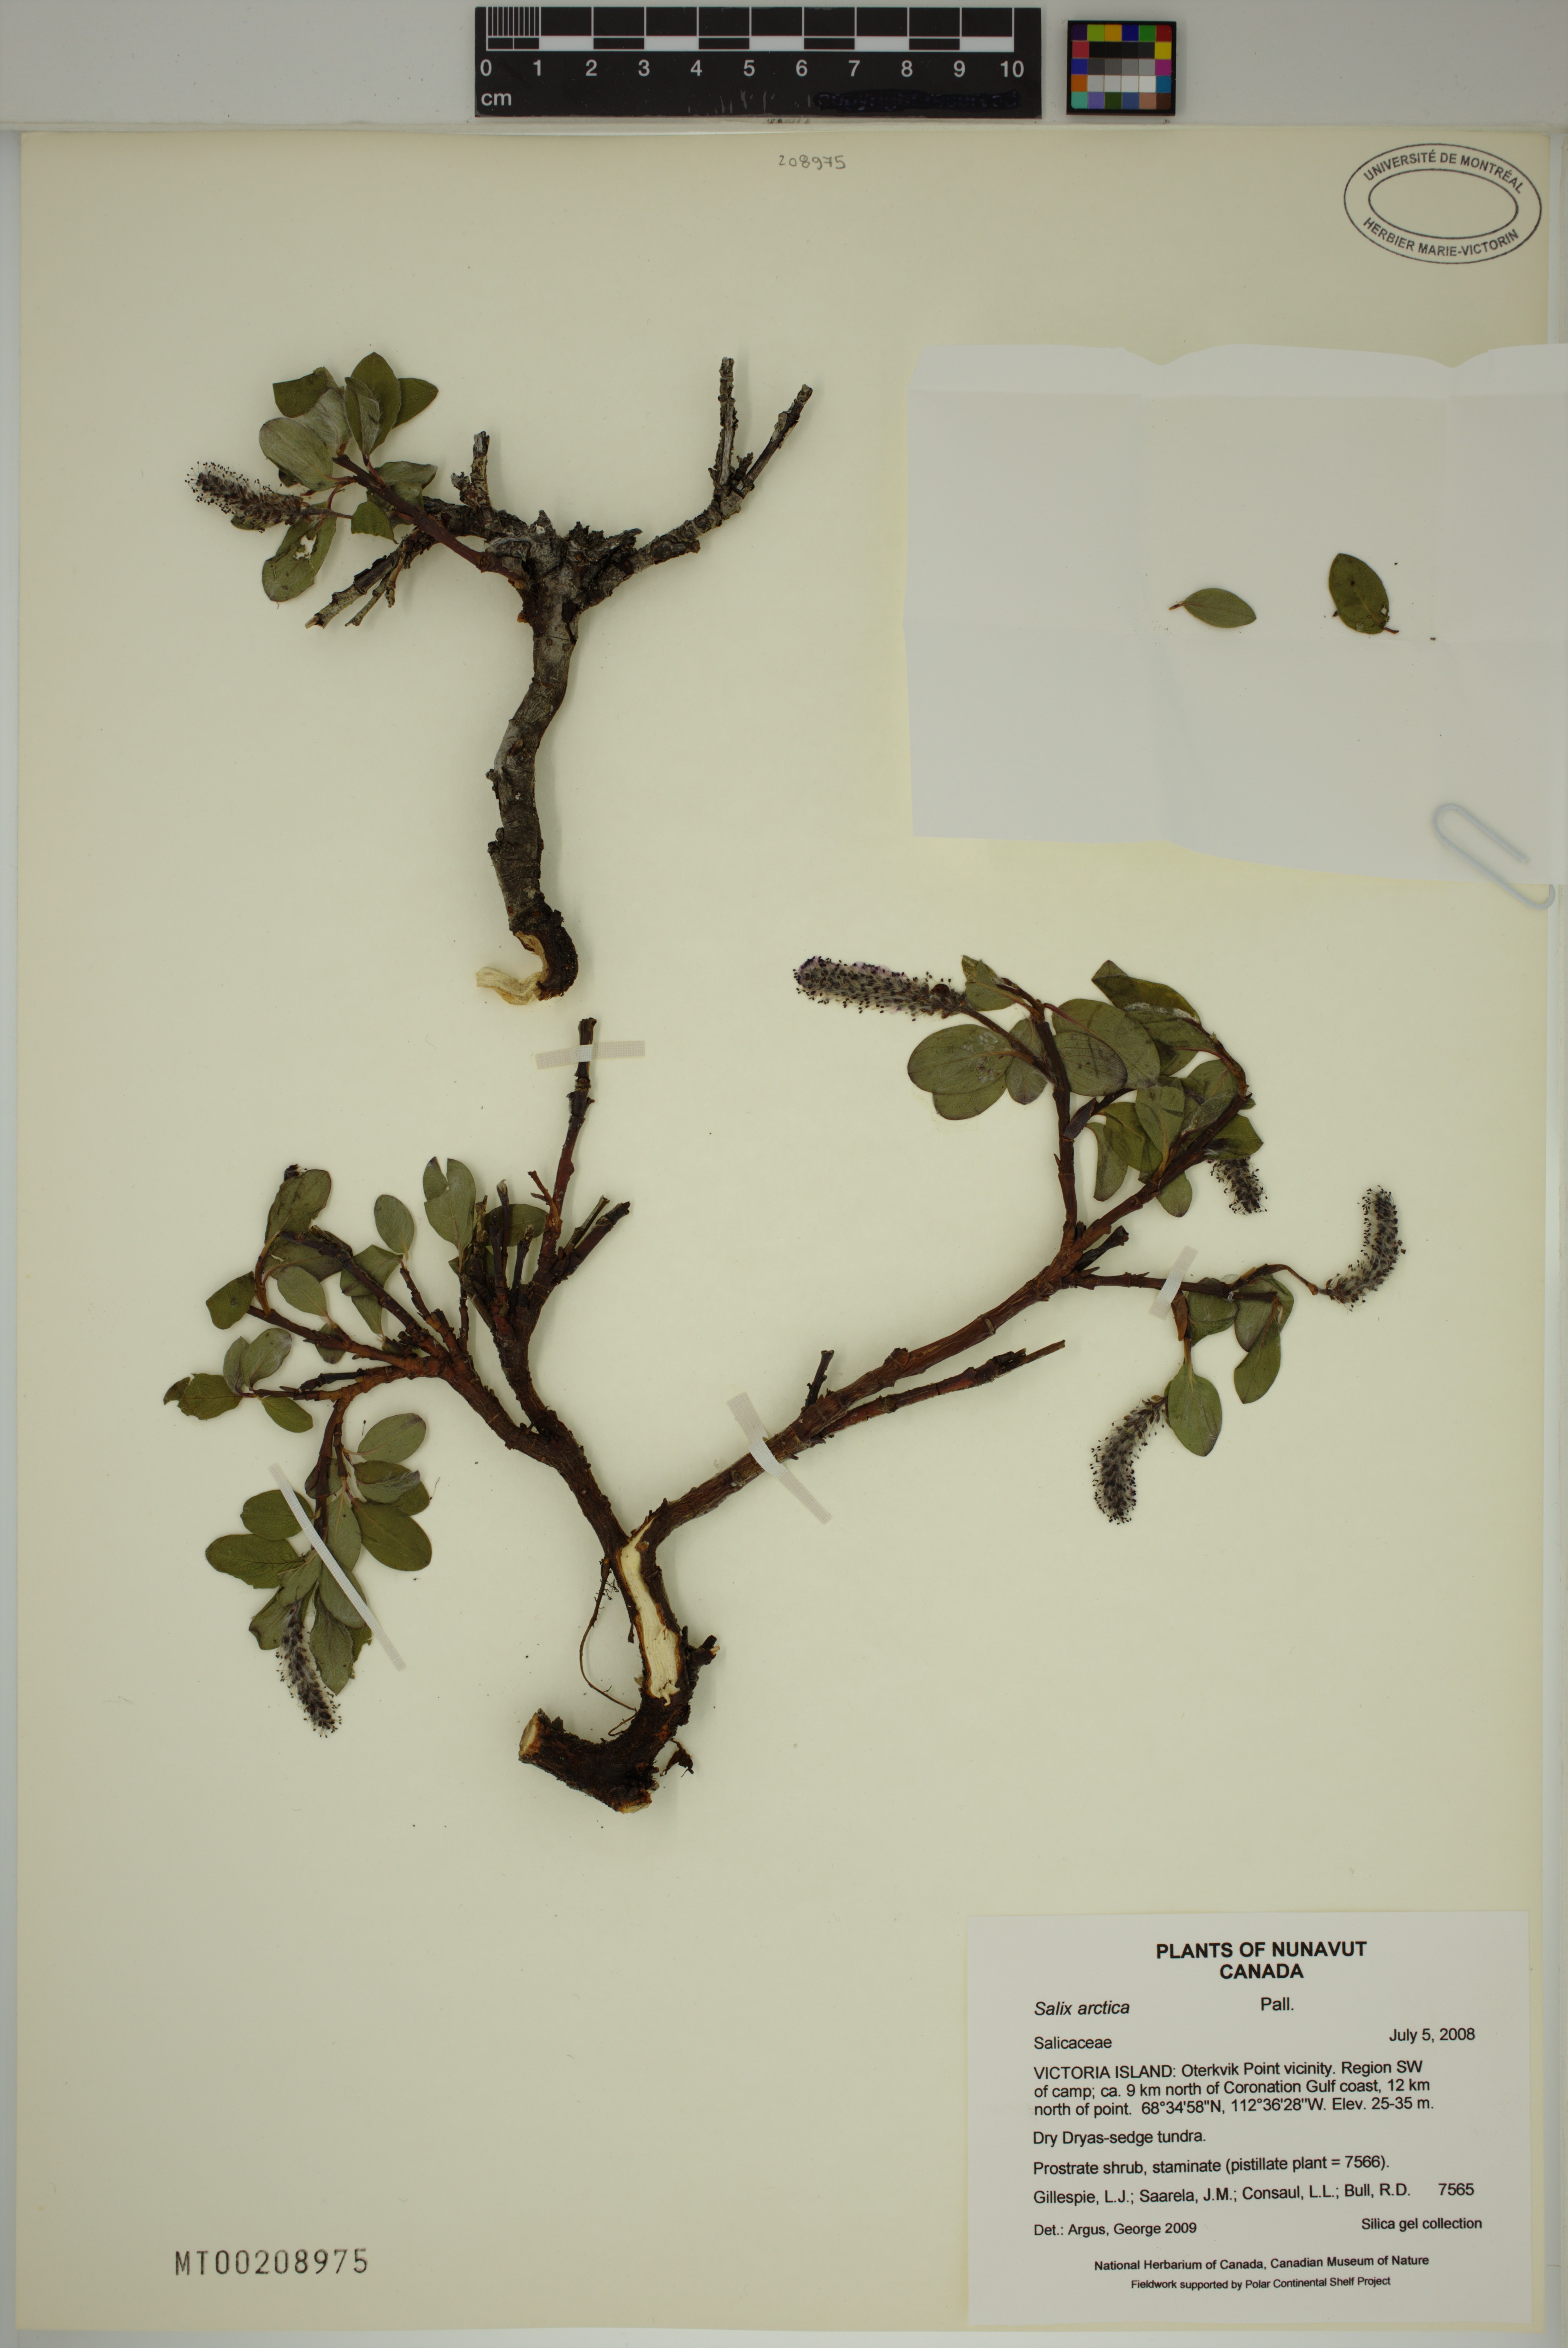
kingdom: Plantae
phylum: Tracheophyta
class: Magnoliopsida
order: Malpighiales
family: Salicaceae
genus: Salix
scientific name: Salix arctica
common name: Arctic willow
